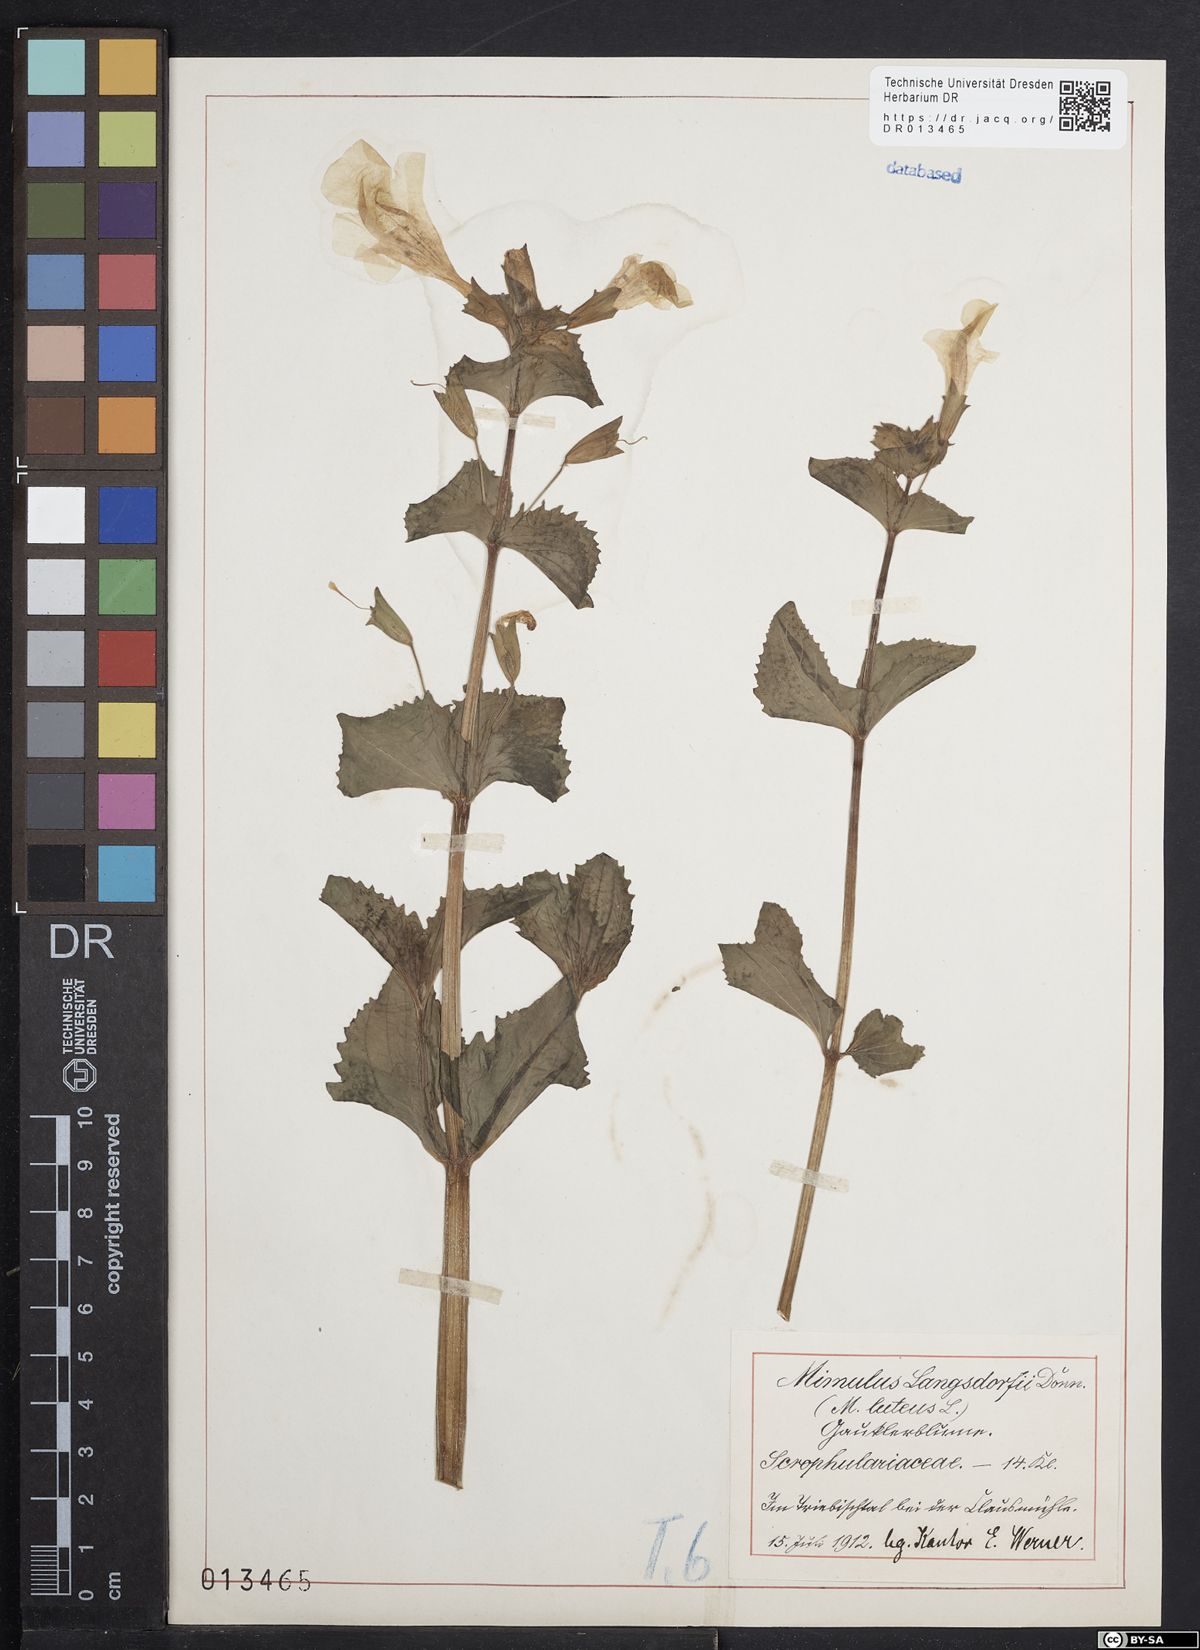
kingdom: Plantae
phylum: Tracheophyta
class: Magnoliopsida
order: Lamiales
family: Phrymaceae
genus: Erythranthe
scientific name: Erythranthe guttata
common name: Monkeyflower
